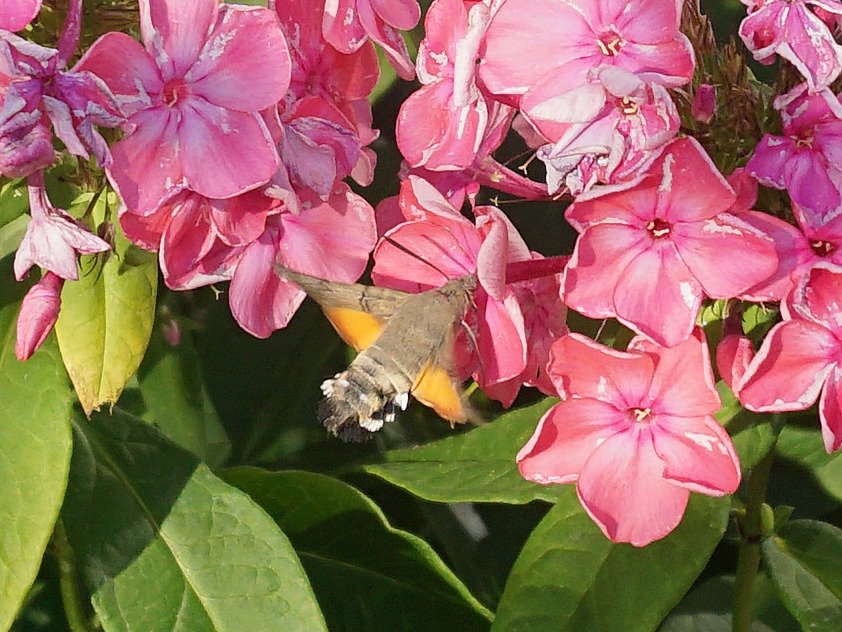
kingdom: Animalia
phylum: Arthropoda
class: Insecta
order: Lepidoptera
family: Sphingidae
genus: Macroglossum
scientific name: Macroglossum stellatarum
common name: Duehale
